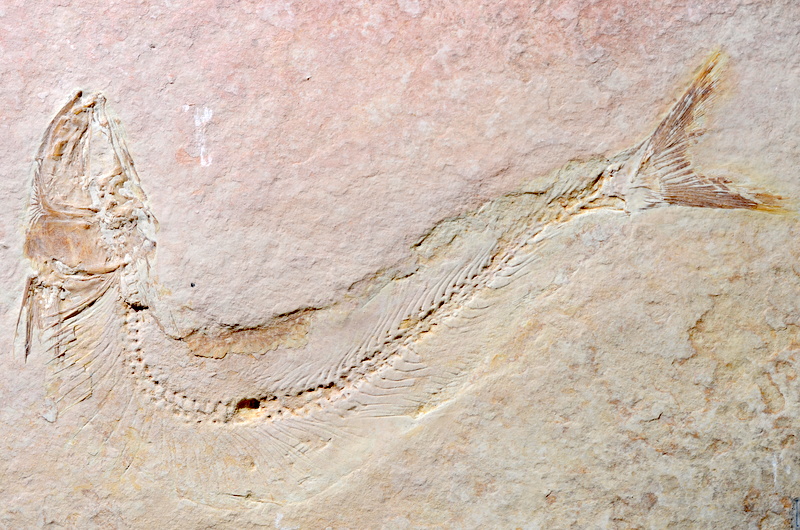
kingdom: Animalia
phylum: Chordata
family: Allothrissopidae
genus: Allothrissops
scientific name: Allothrissops
